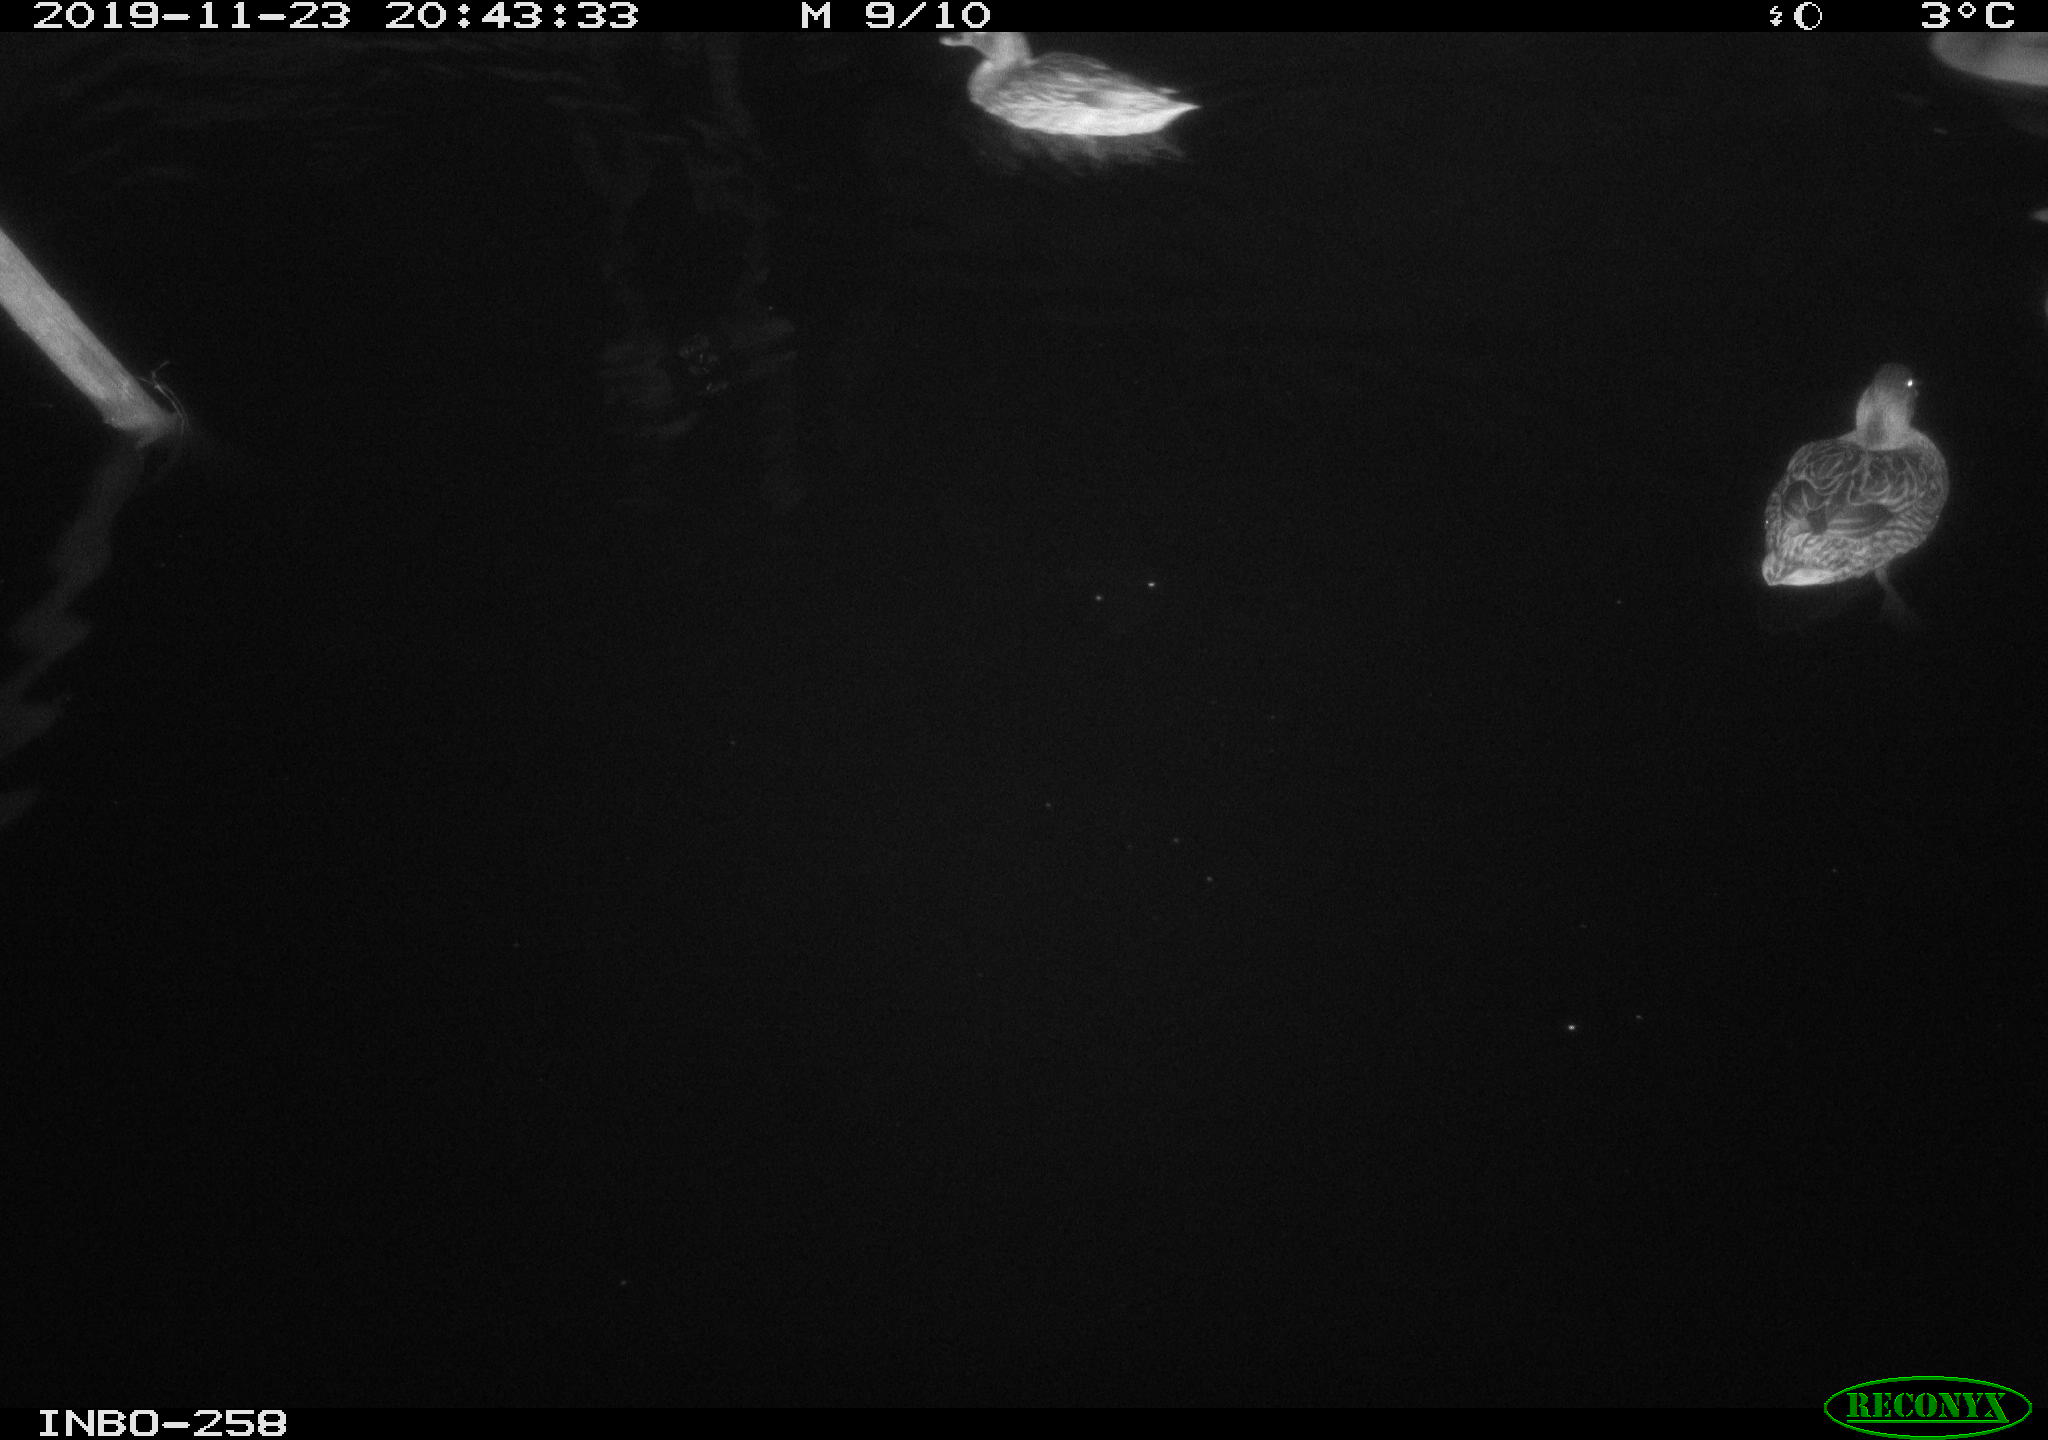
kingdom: Animalia
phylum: Chordata
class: Aves
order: Anseriformes
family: Anatidae
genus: Anas
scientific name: Anas platyrhynchos
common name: Mallard
